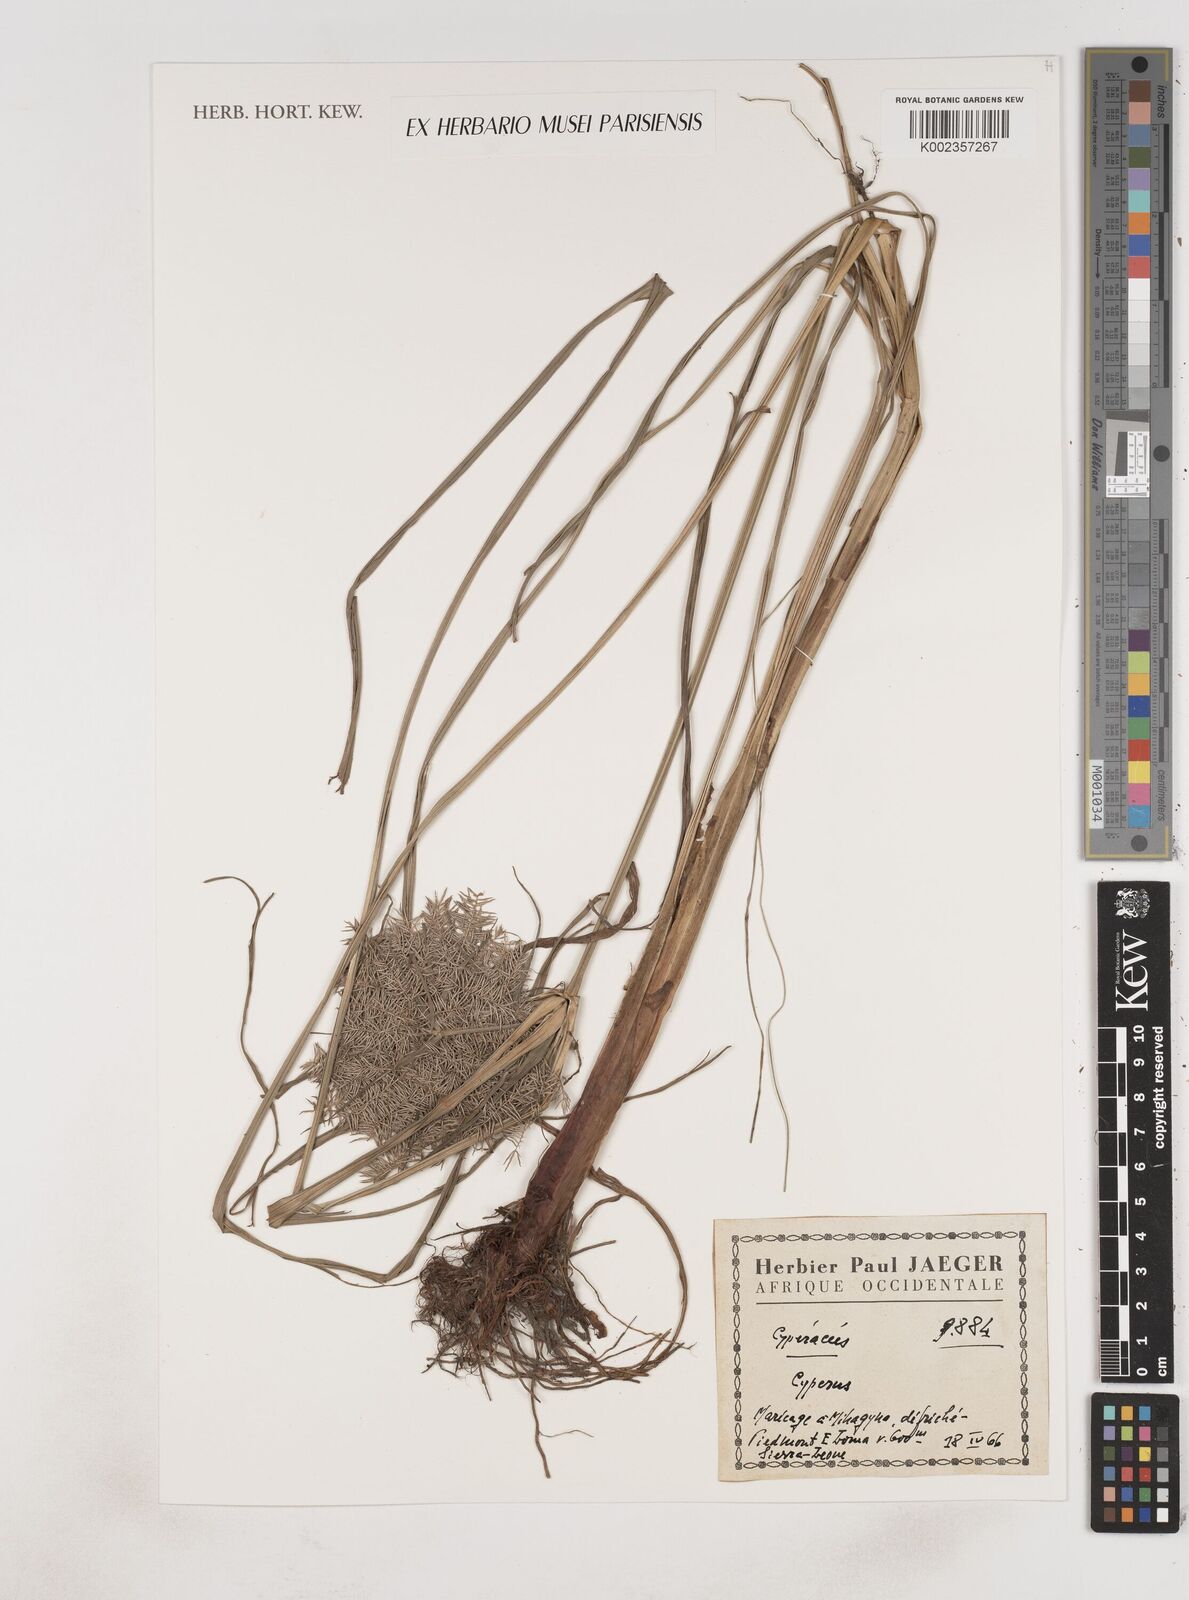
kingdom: Plantae
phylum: Tracheophyta
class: Liliopsida
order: Poales
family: Cyperaceae
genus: Cyperus
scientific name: Cyperus
